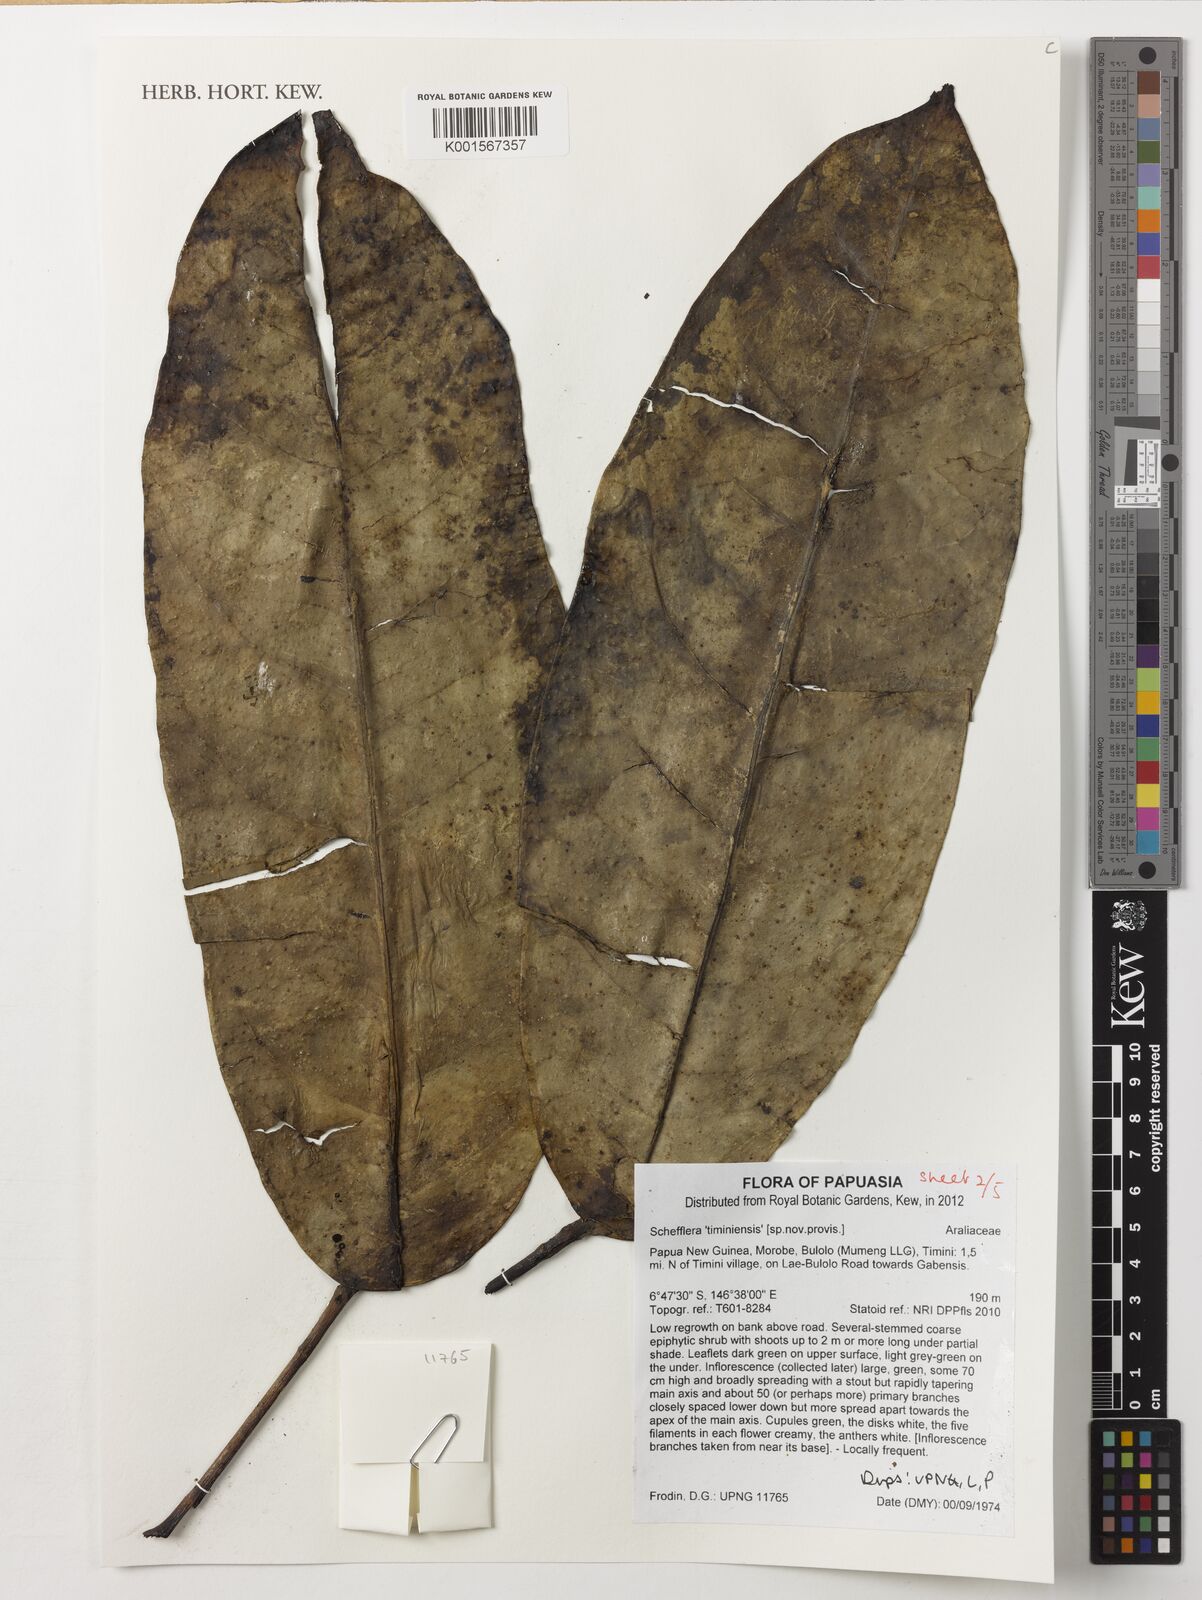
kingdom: Plantae
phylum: Tracheophyta
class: Magnoliopsida
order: Apiales
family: Araliaceae
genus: Schefflera
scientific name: Schefflera
